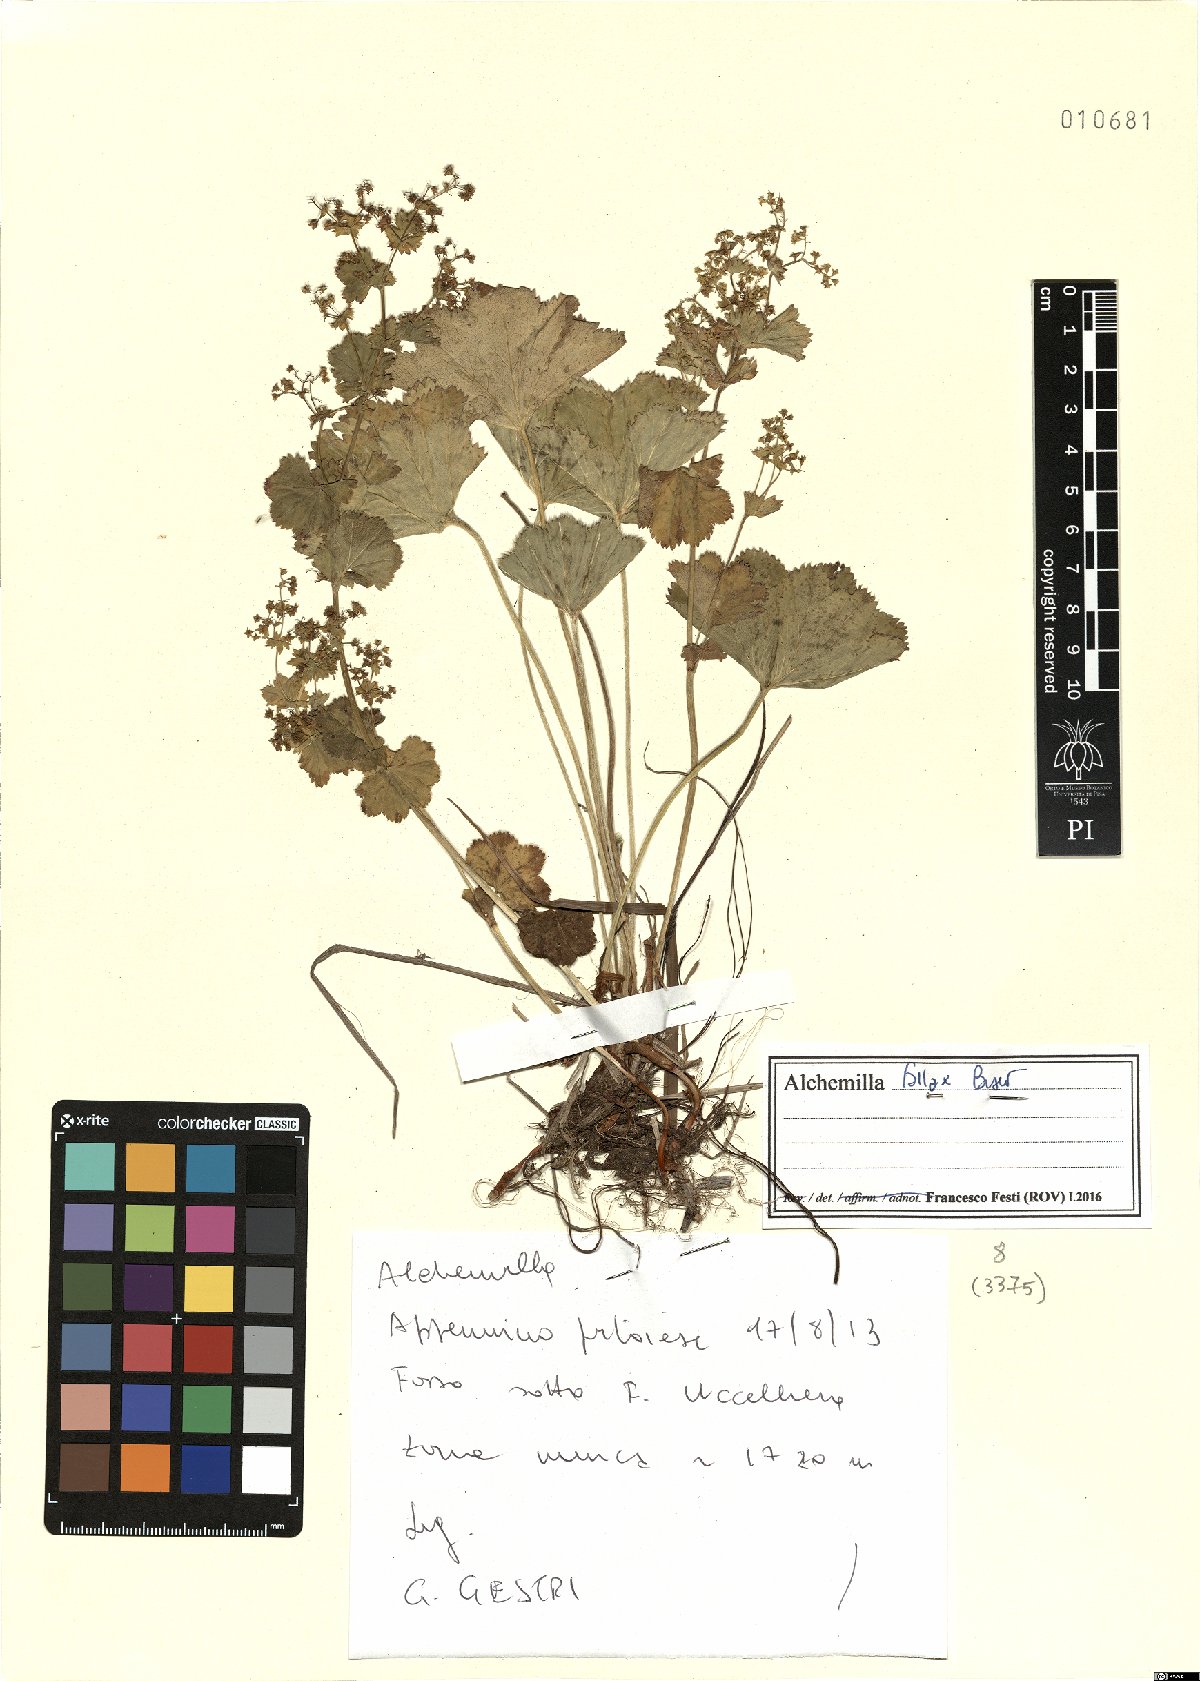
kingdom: Plantae
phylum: Tracheophyta
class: Magnoliopsida
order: Rosales
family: Rosaceae
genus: Alchemilla
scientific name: Alchemilla fallax
